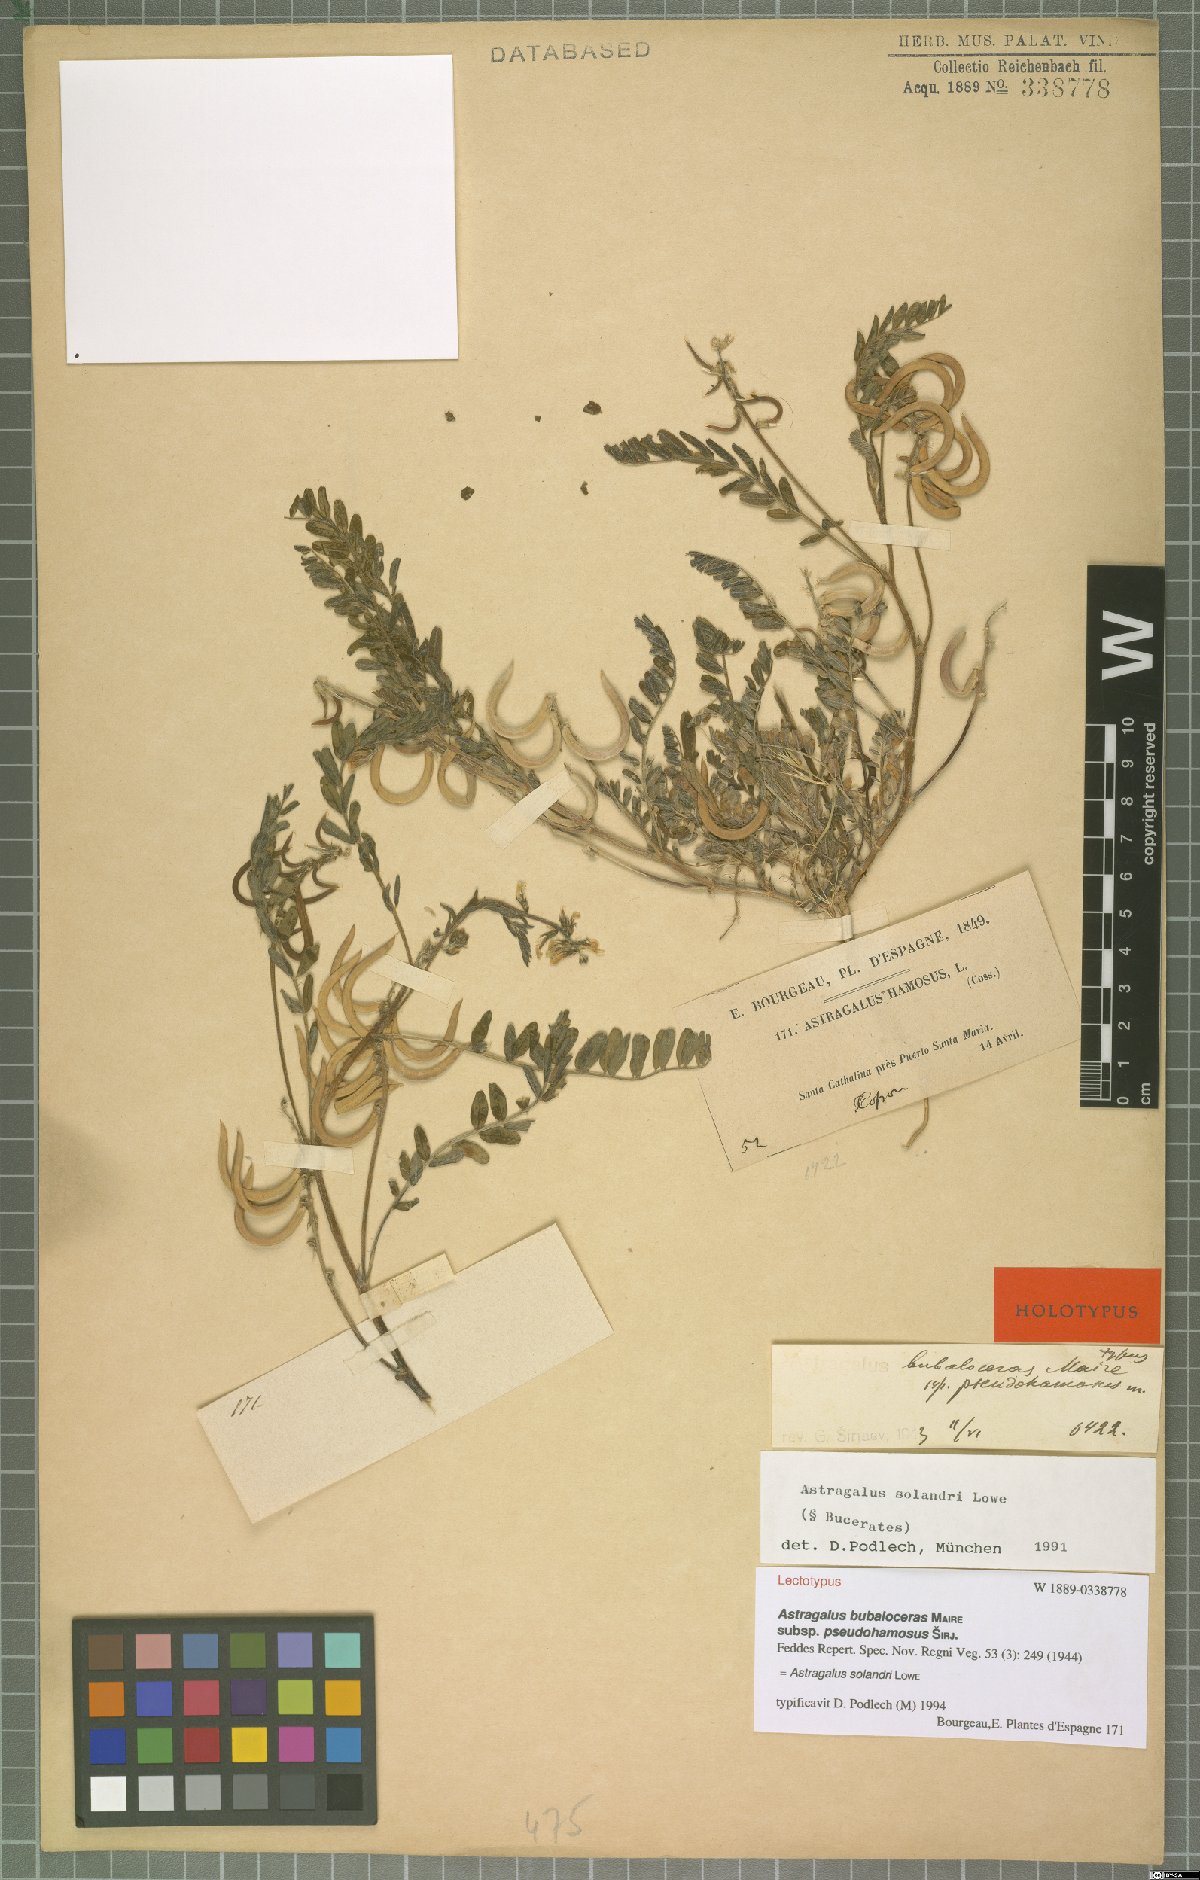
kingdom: Plantae
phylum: Tracheophyta
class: Magnoliopsida
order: Fabales
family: Fabaceae
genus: Astragalus
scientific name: Astragalus solandri
